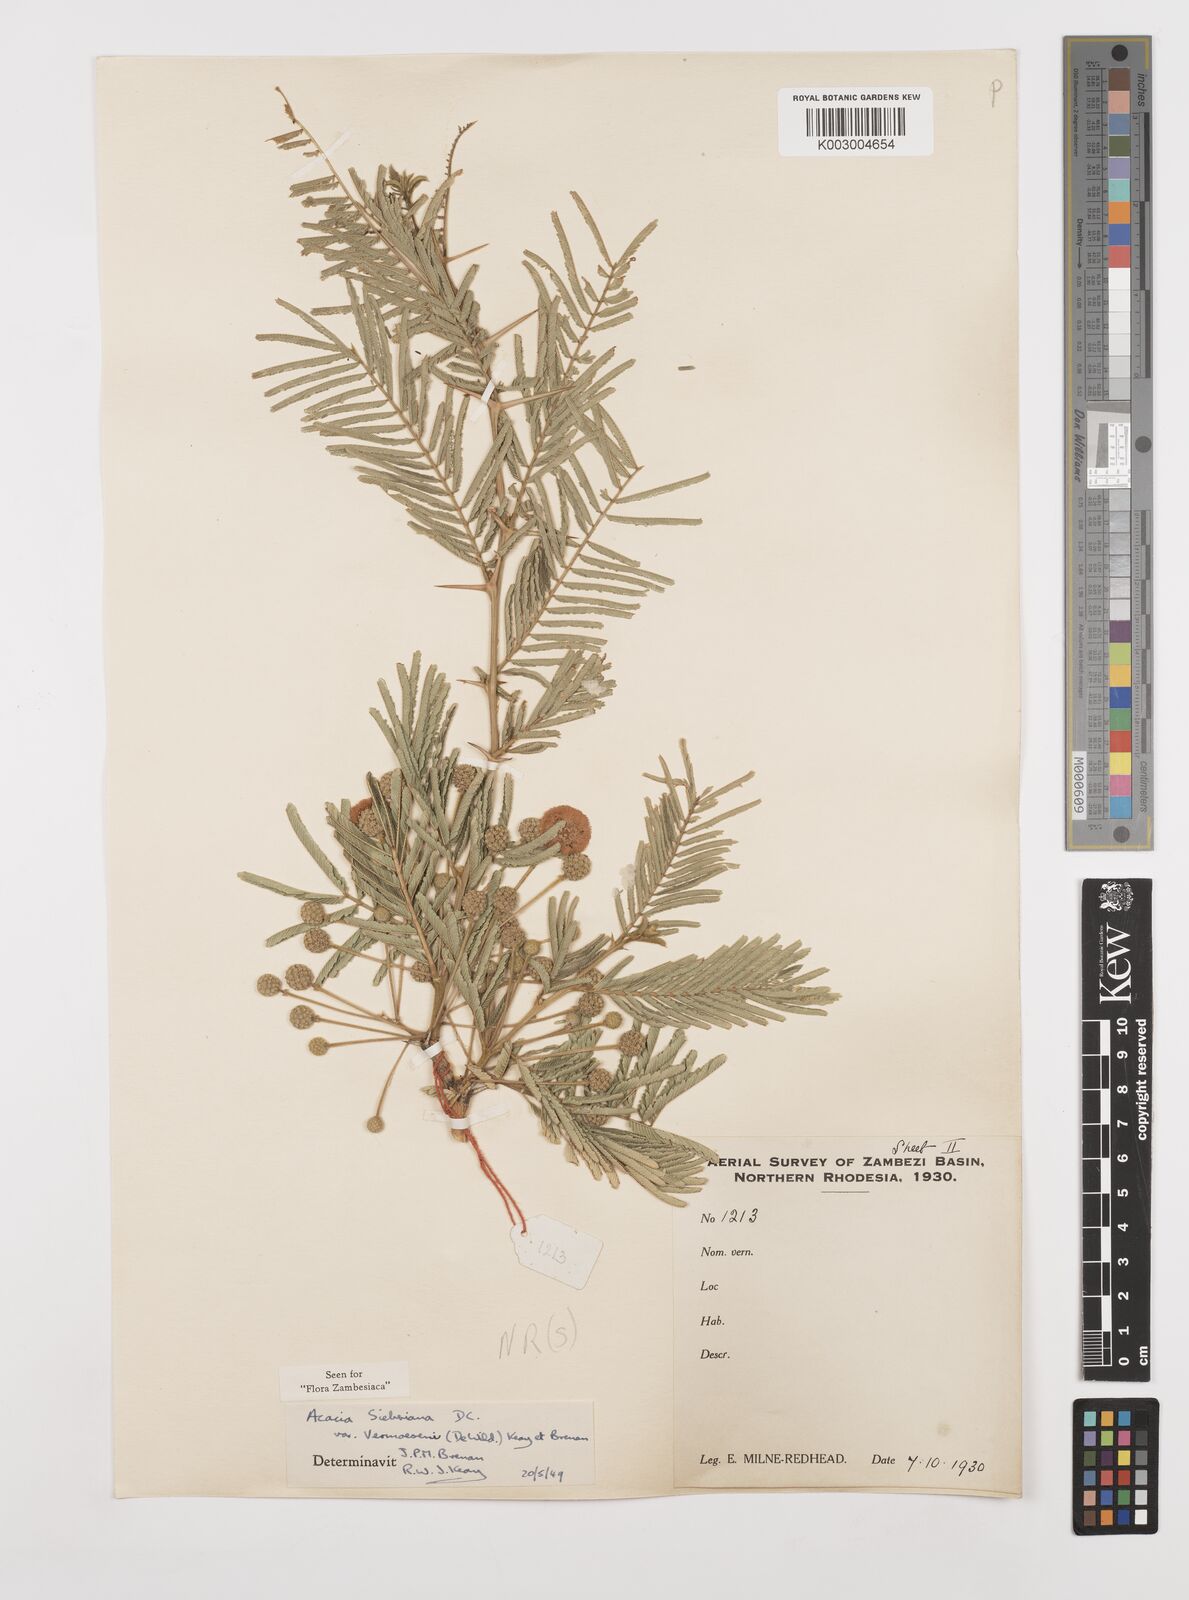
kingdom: Plantae
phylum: Tracheophyta
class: Magnoliopsida
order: Fabales
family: Fabaceae
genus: Vachellia
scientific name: Vachellia sieberiana
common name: Flat-topped thorn
